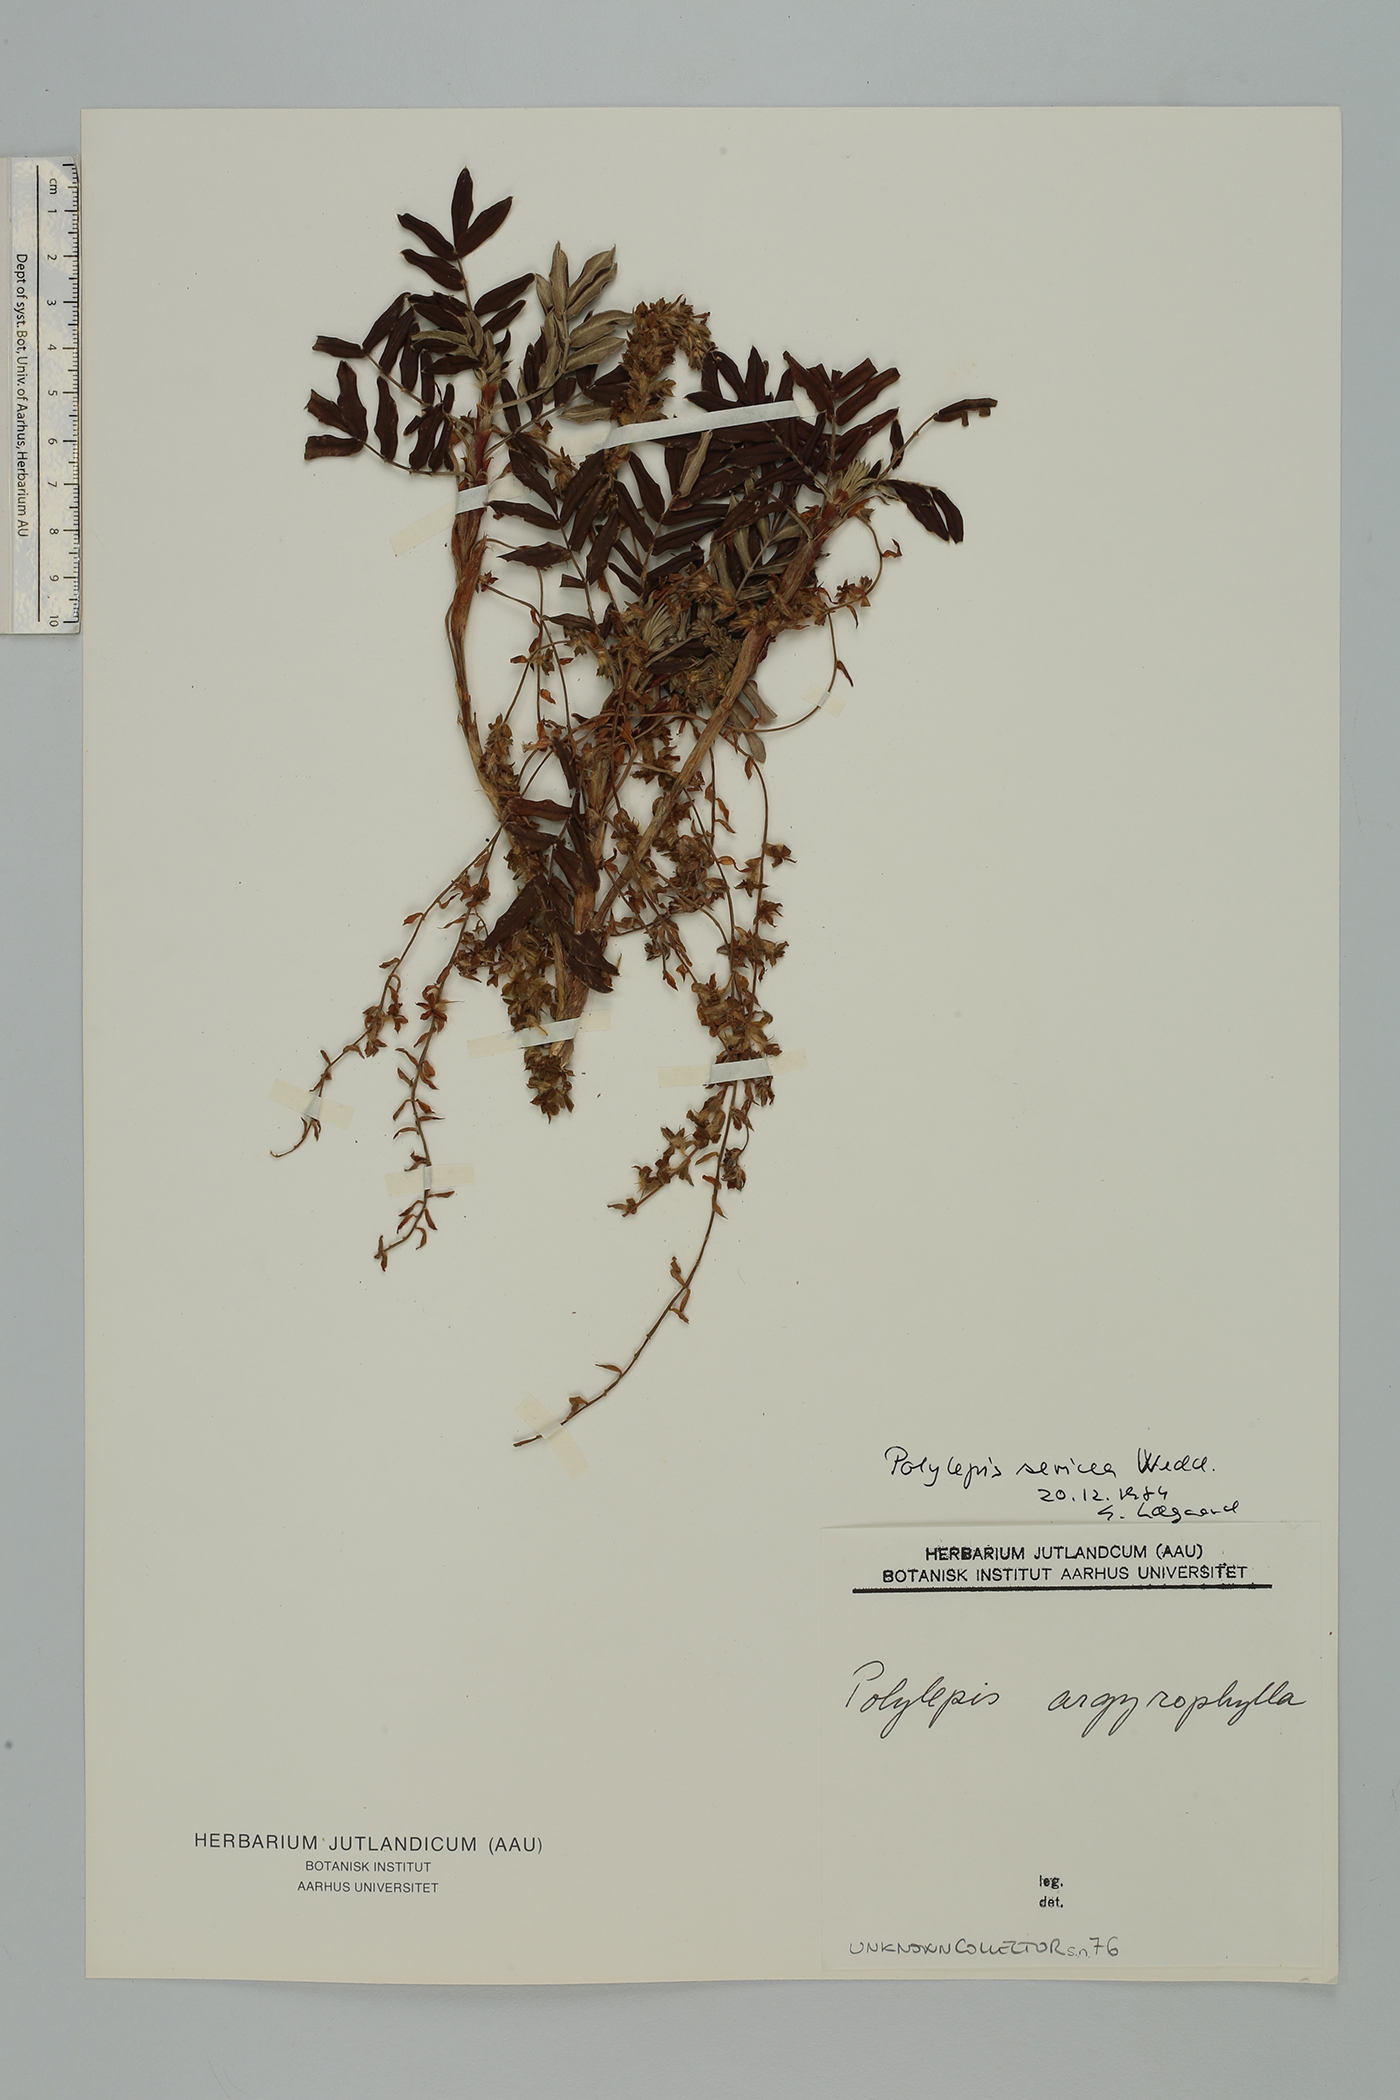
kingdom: Plantae
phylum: Tracheophyta
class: Magnoliopsida
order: Rosales
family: Rosaceae
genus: Polylepis
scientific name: Polylepis sericea
